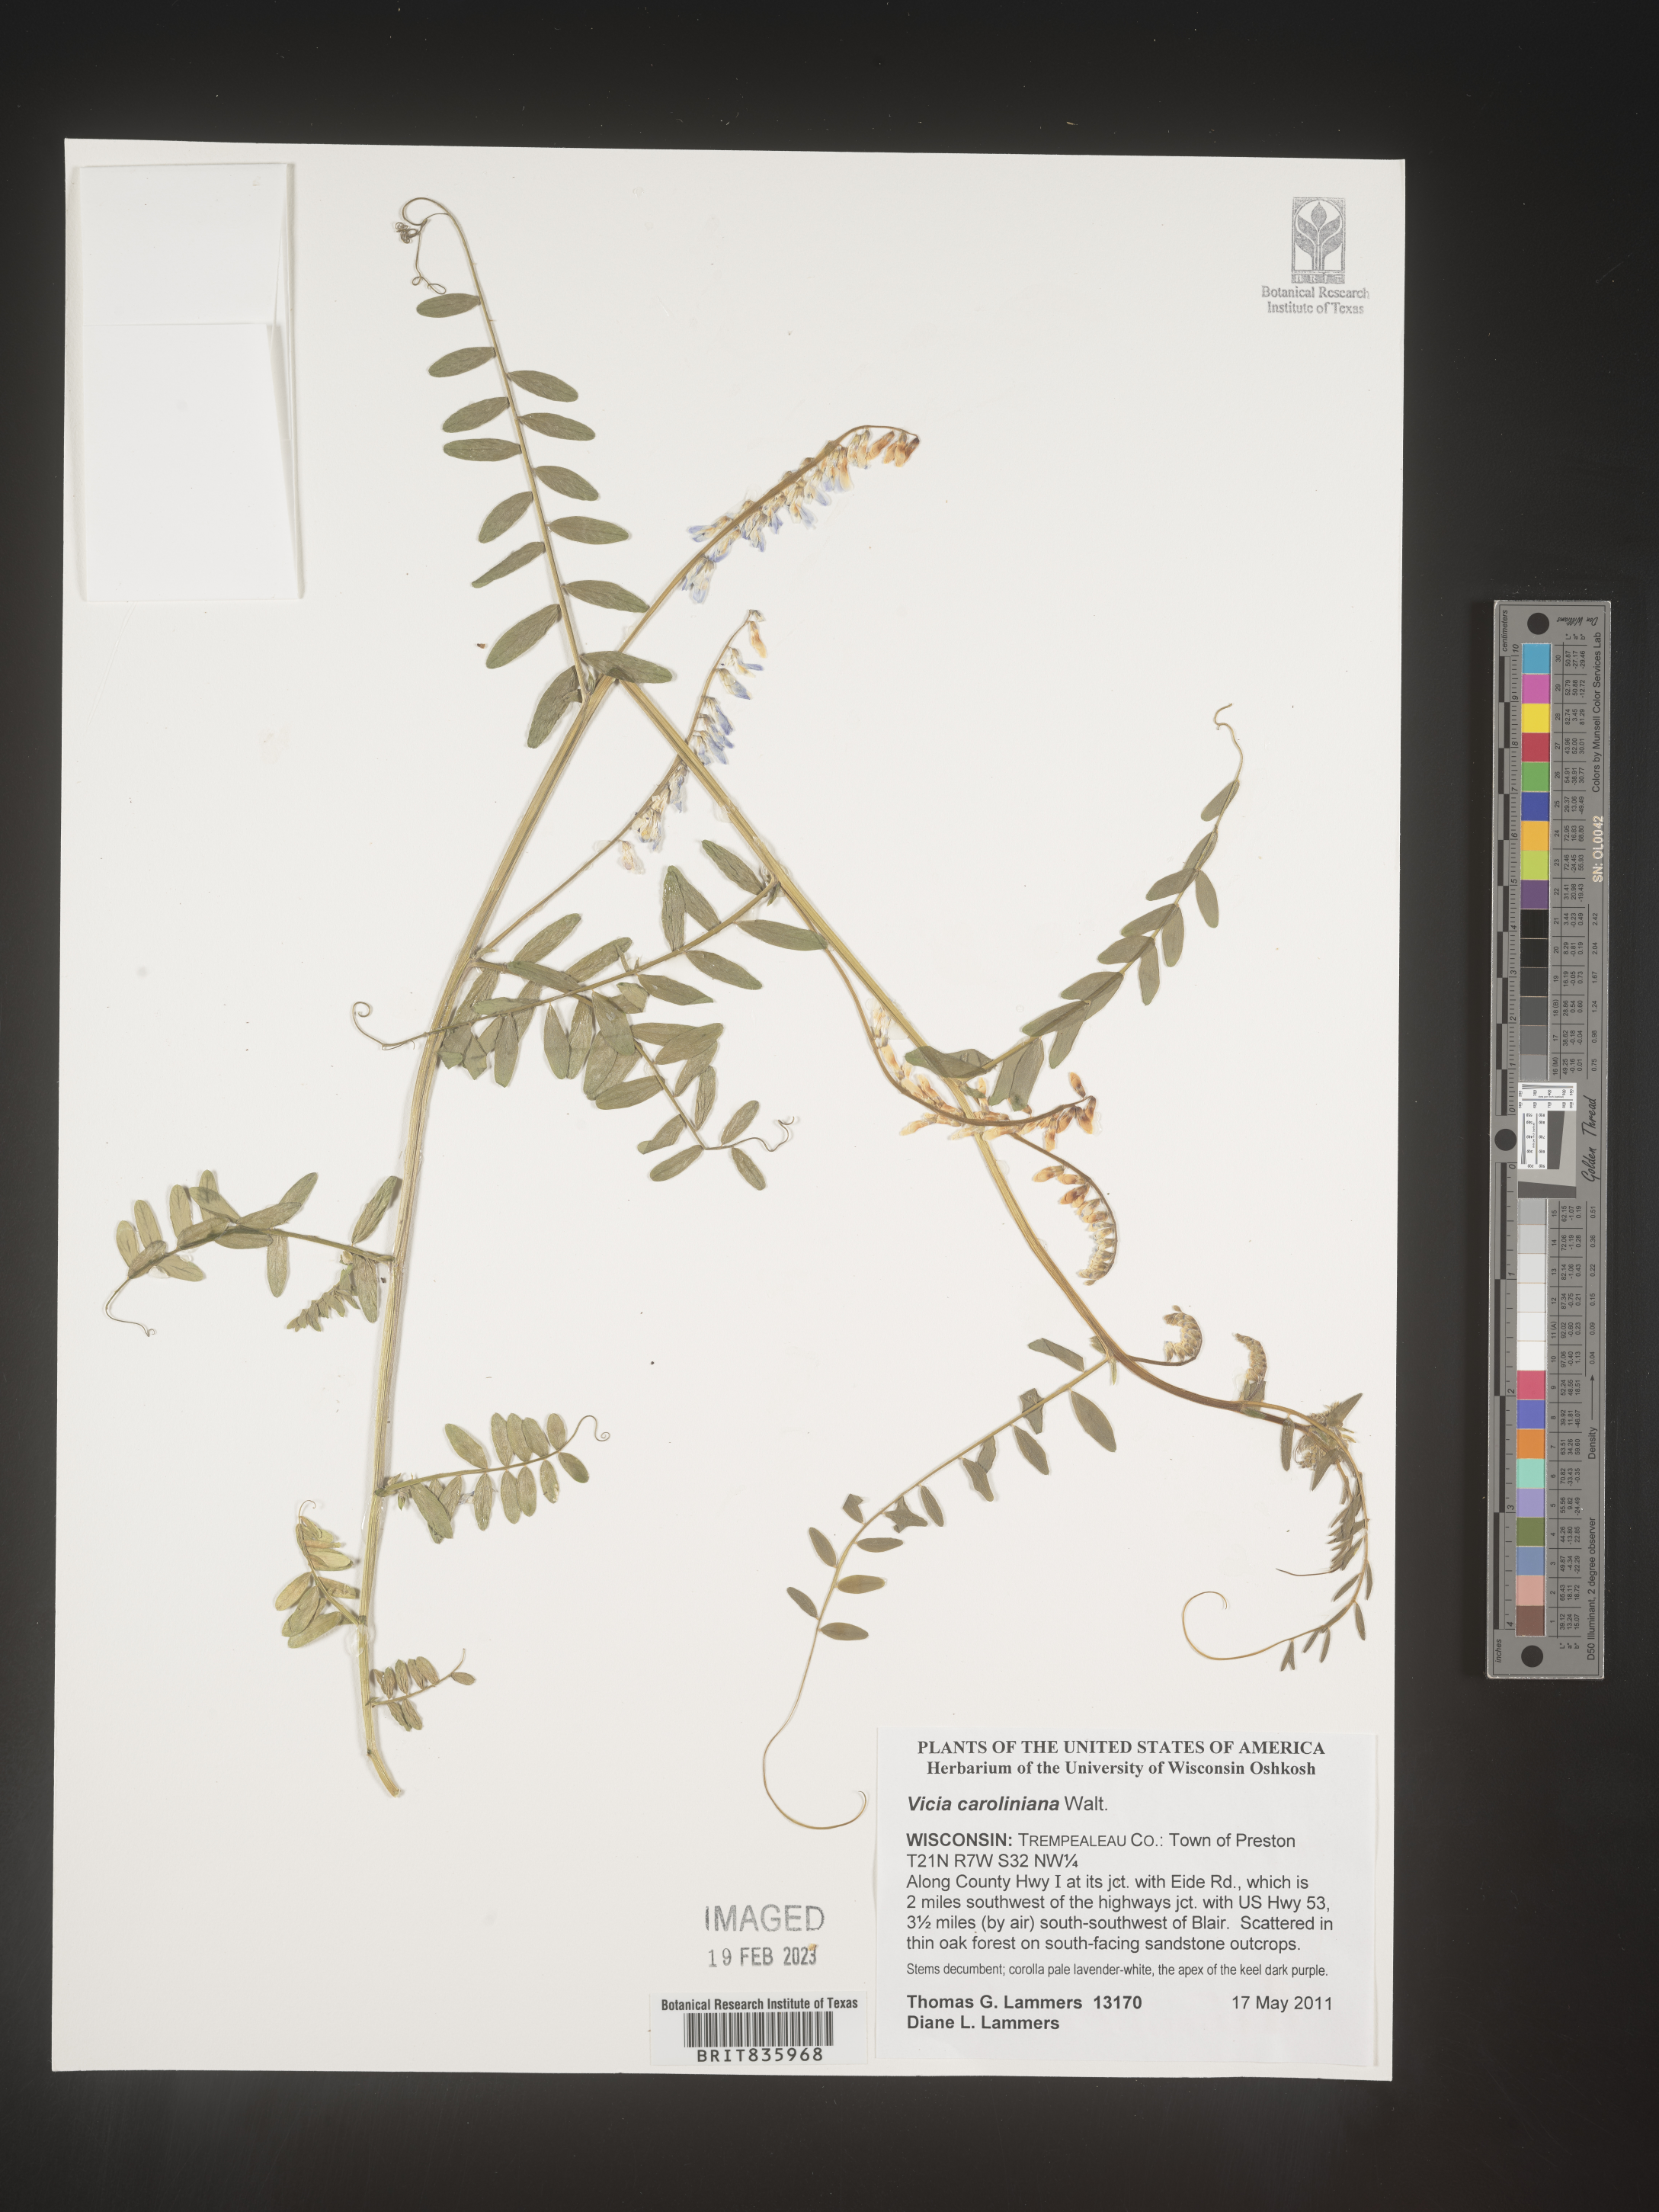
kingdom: Plantae
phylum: Tracheophyta
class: Magnoliopsida
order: Fabales
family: Fabaceae
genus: Vicia
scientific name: Vicia caroliniana
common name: Carolina vetch
